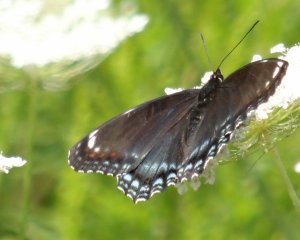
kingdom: Animalia
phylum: Arthropoda
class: Insecta
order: Lepidoptera
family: Nymphalidae
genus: Limenitis
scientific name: Limenitis astyanax
